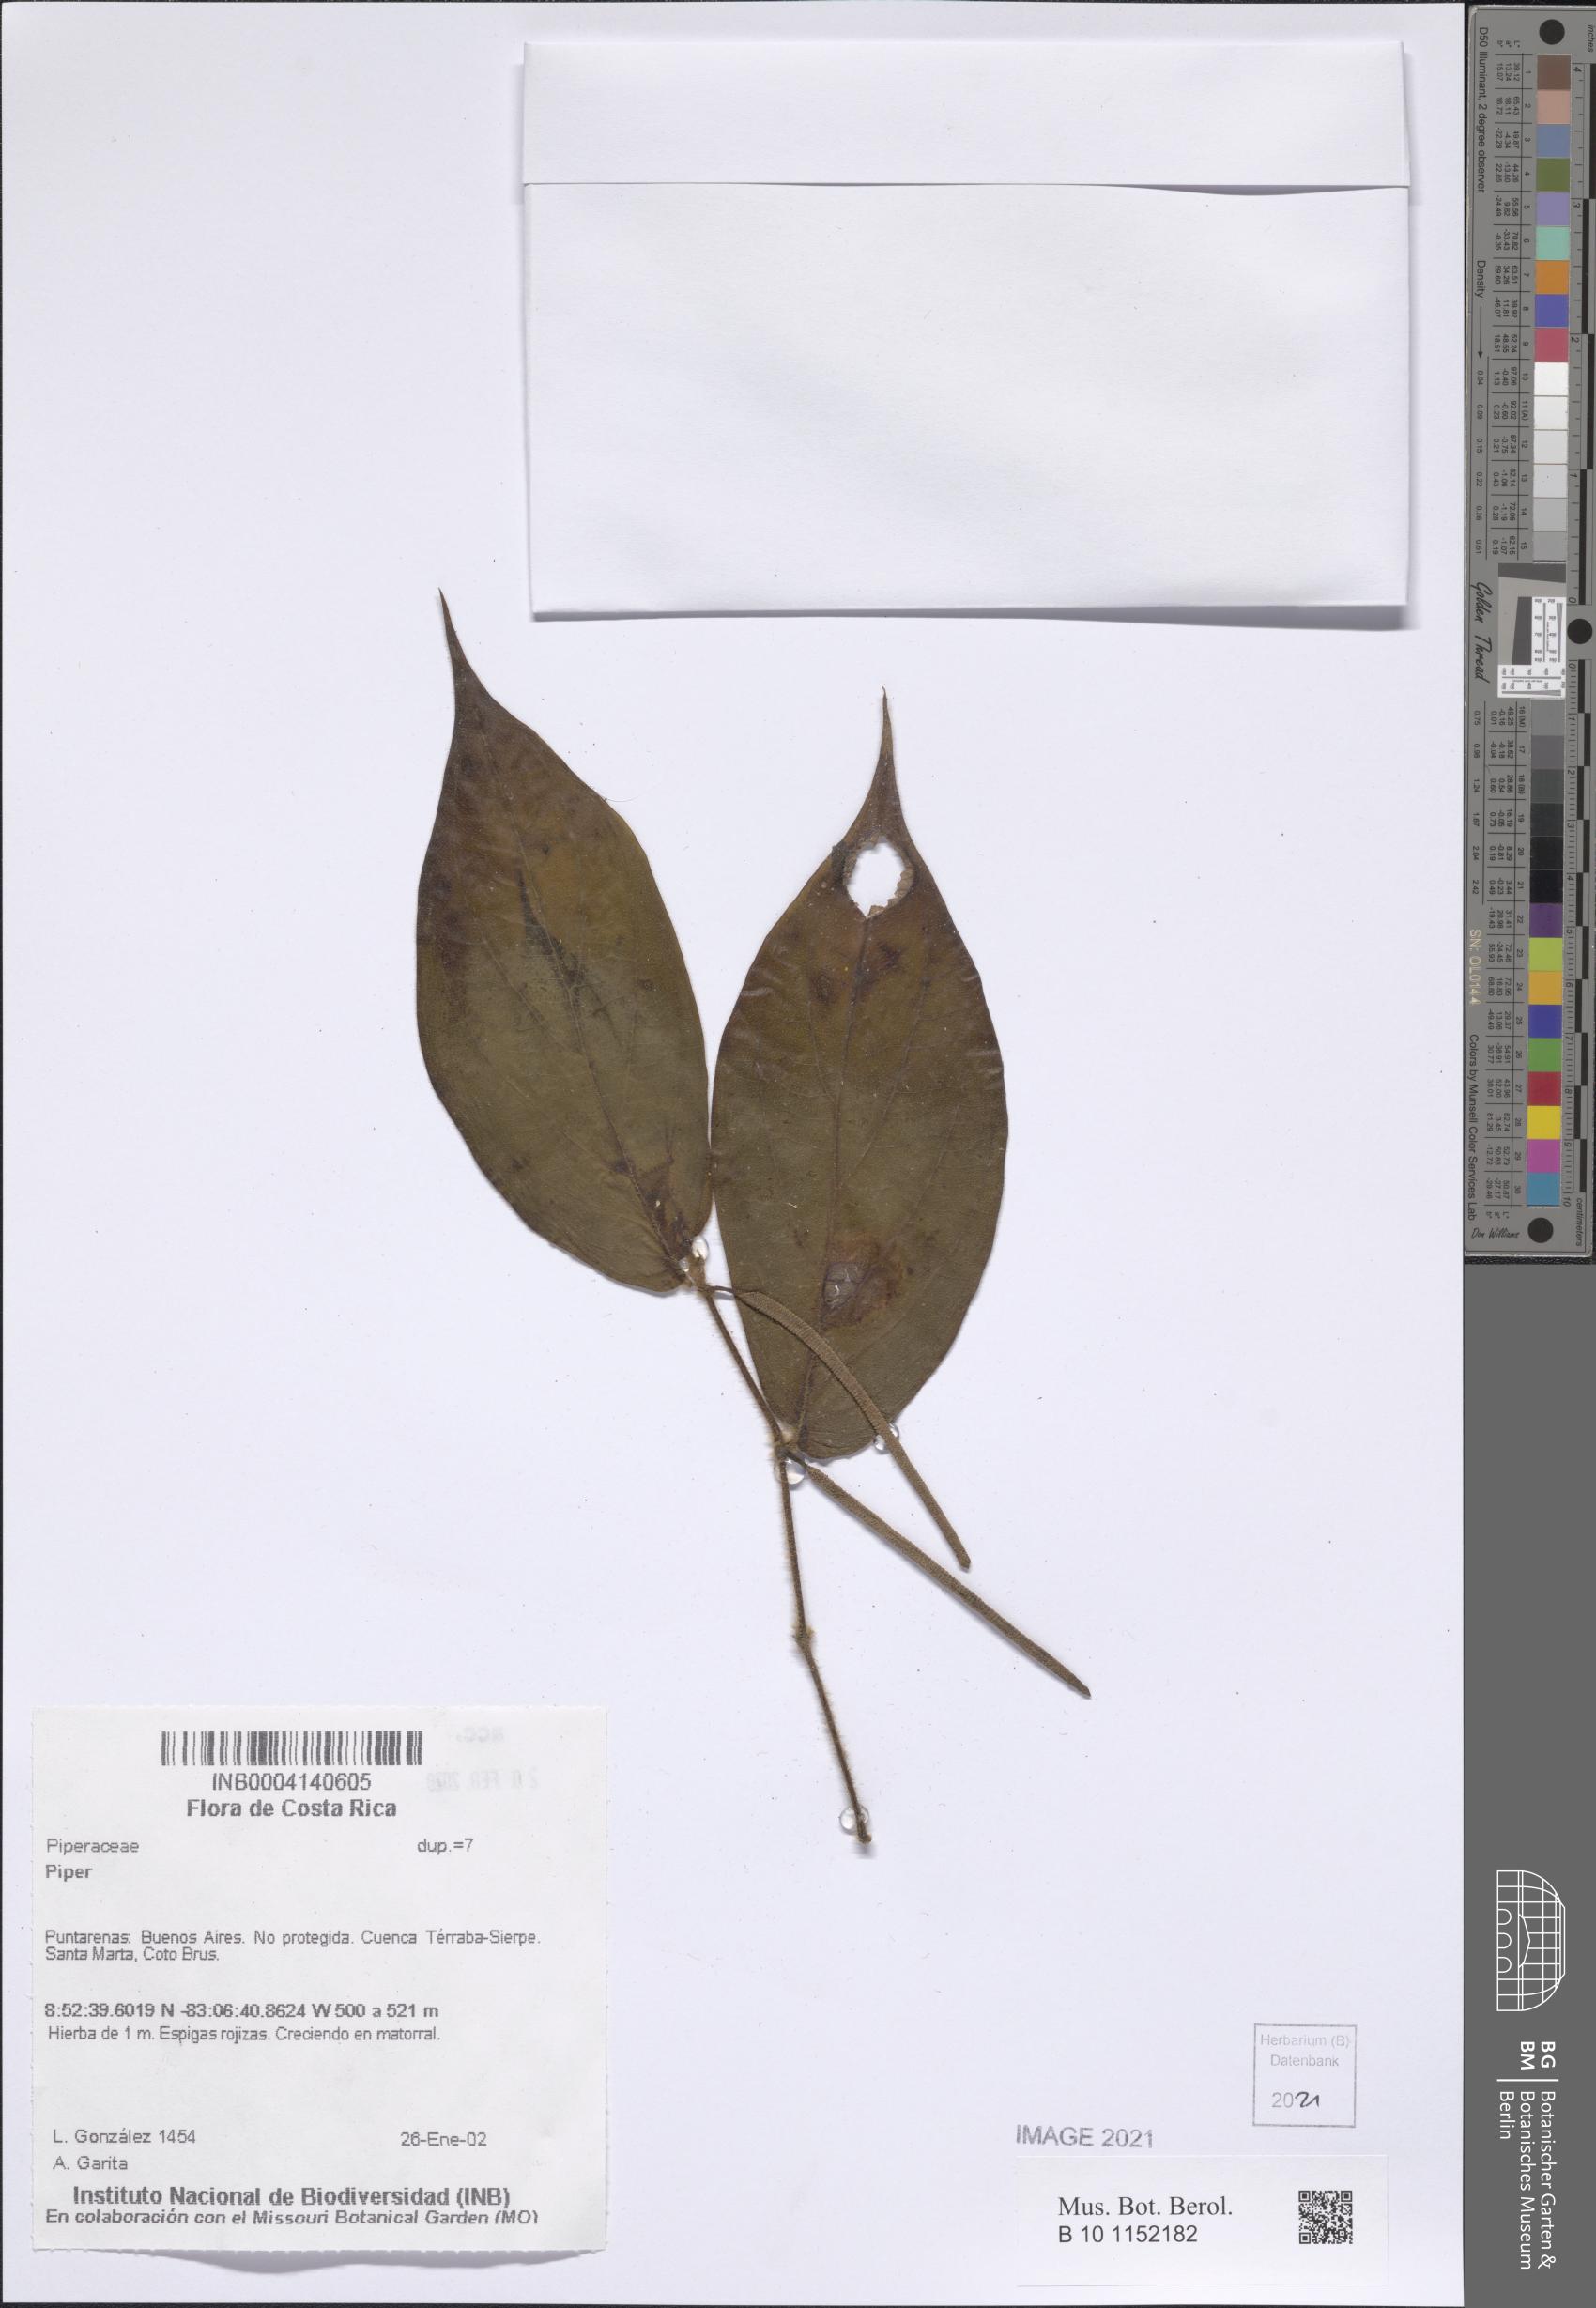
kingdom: Plantae
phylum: Tracheophyta
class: Magnoliopsida
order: Piperales
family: Piperaceae
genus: Piper
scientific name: Piper
